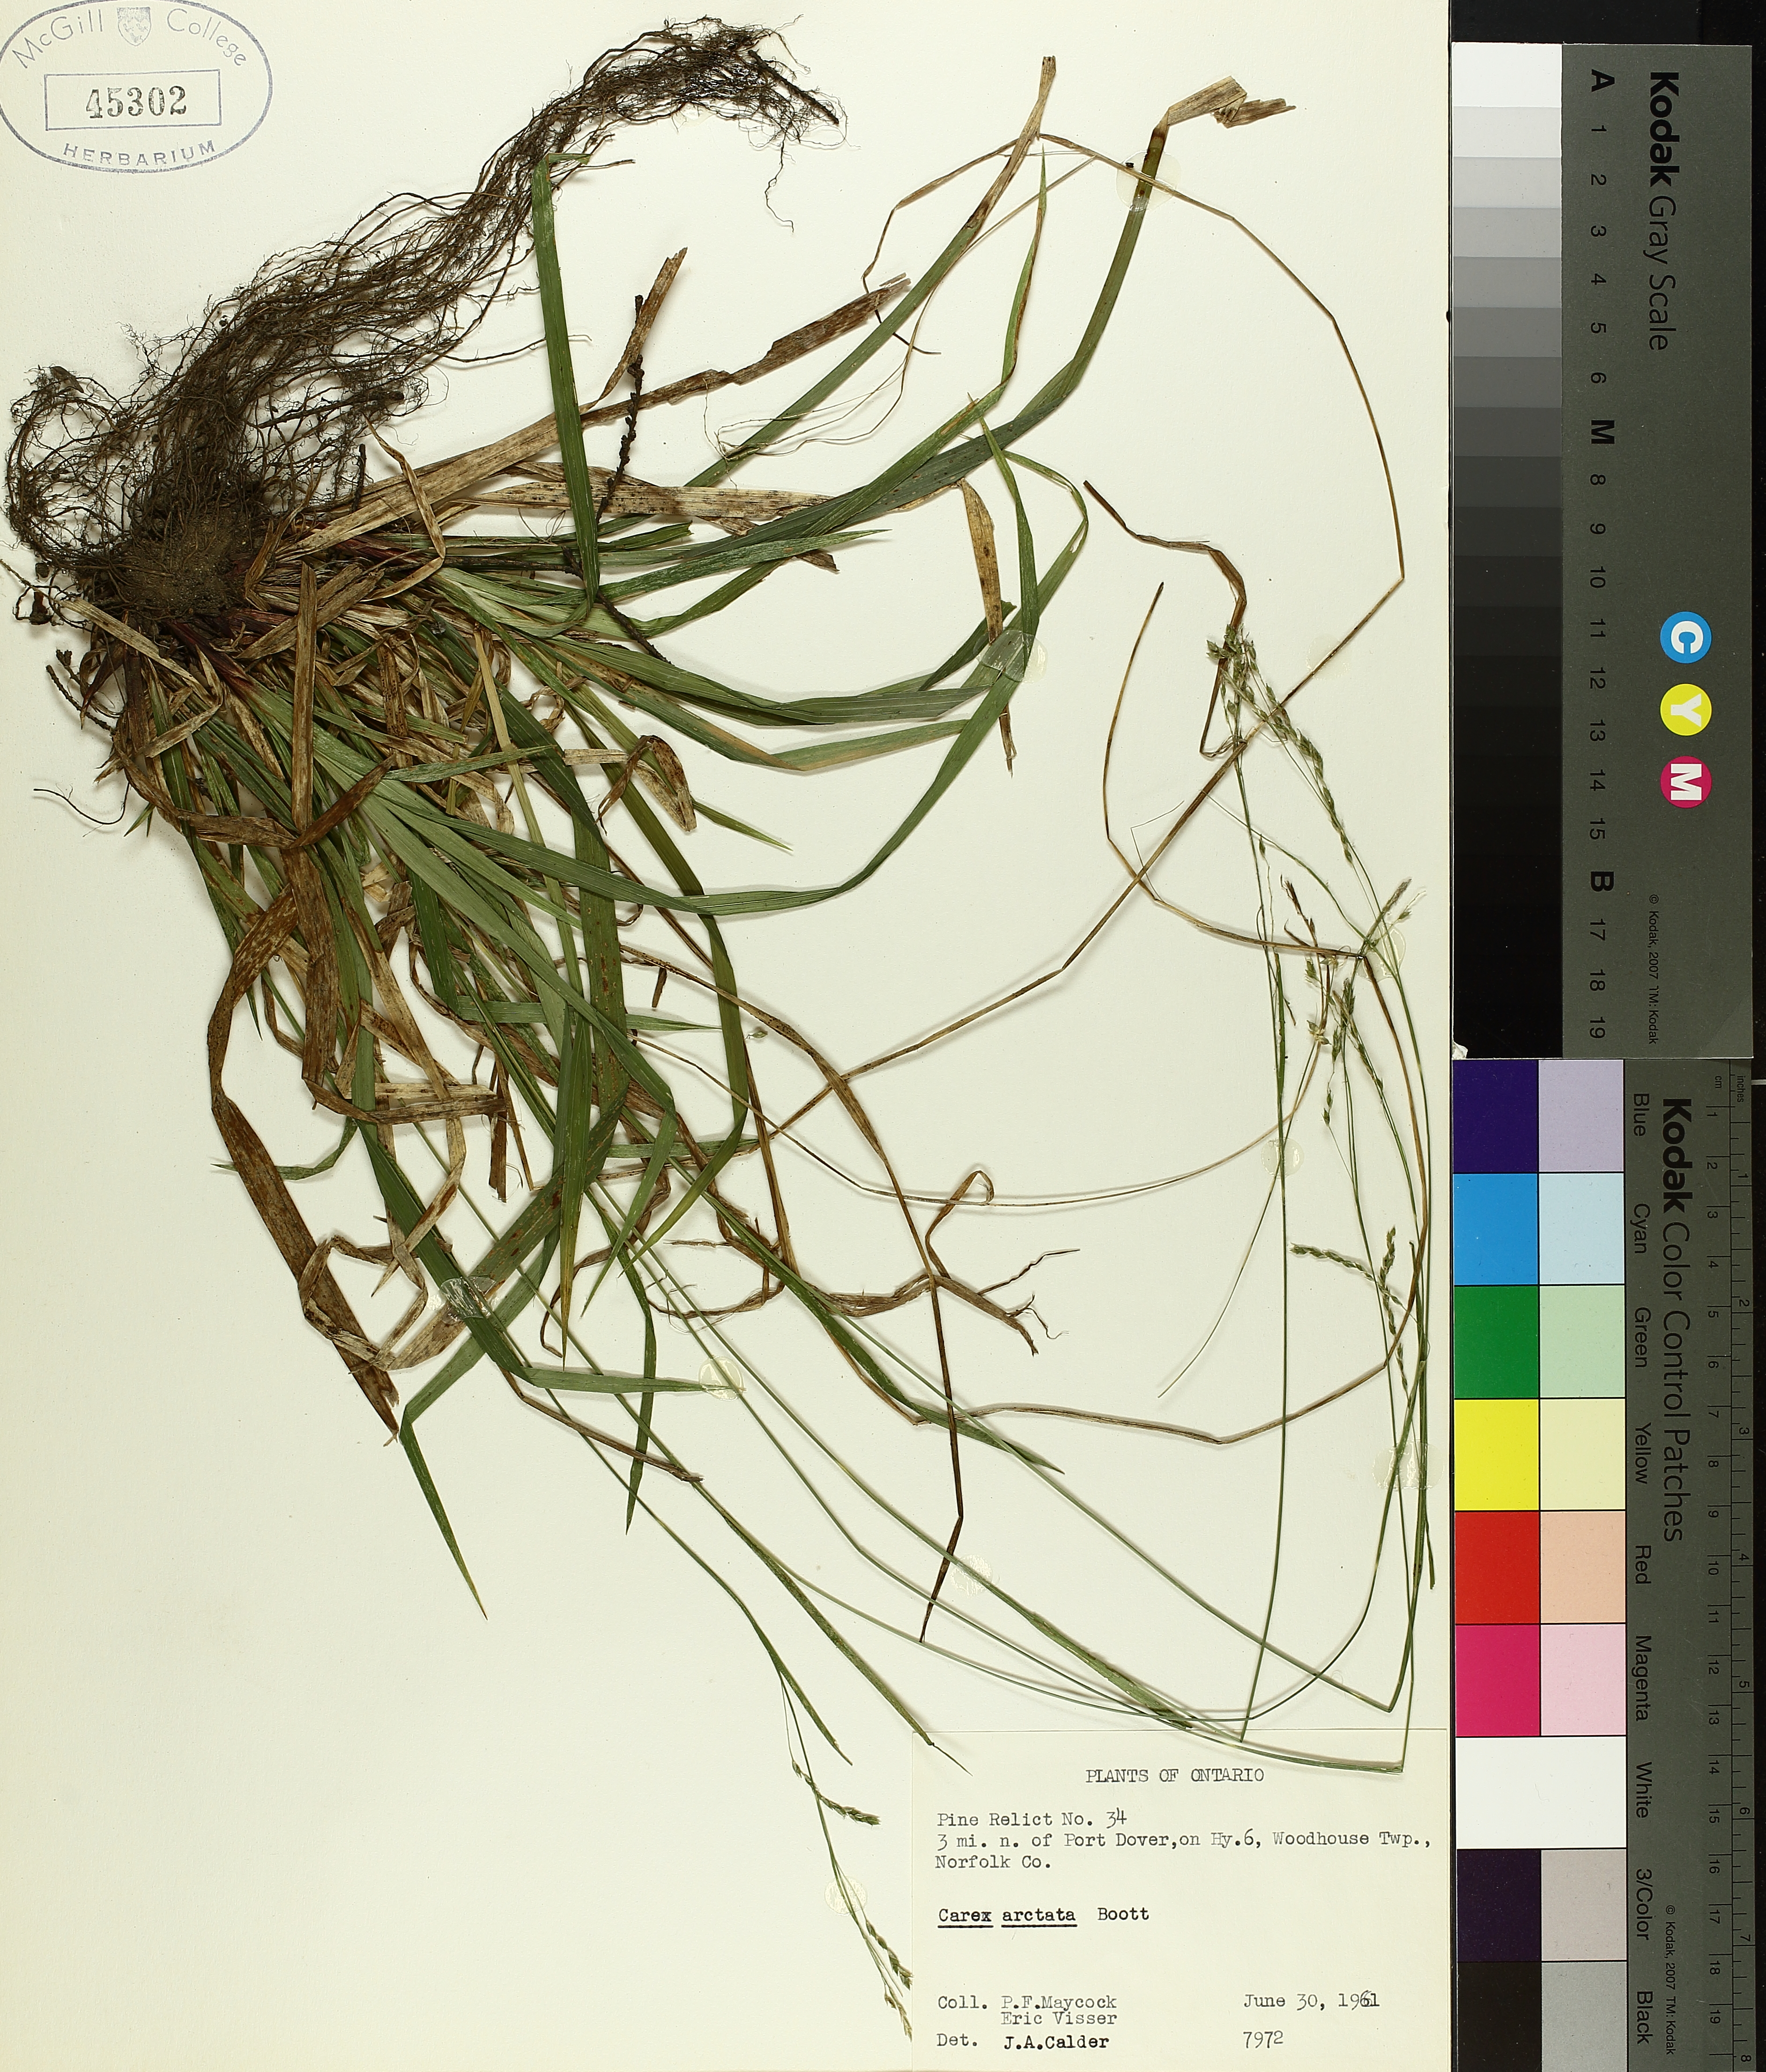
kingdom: Plantae
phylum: Tracheophyta
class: Liliopsida
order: Poales
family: Cyperaceae
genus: Carex
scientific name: Carex arctata
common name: Black sedge
